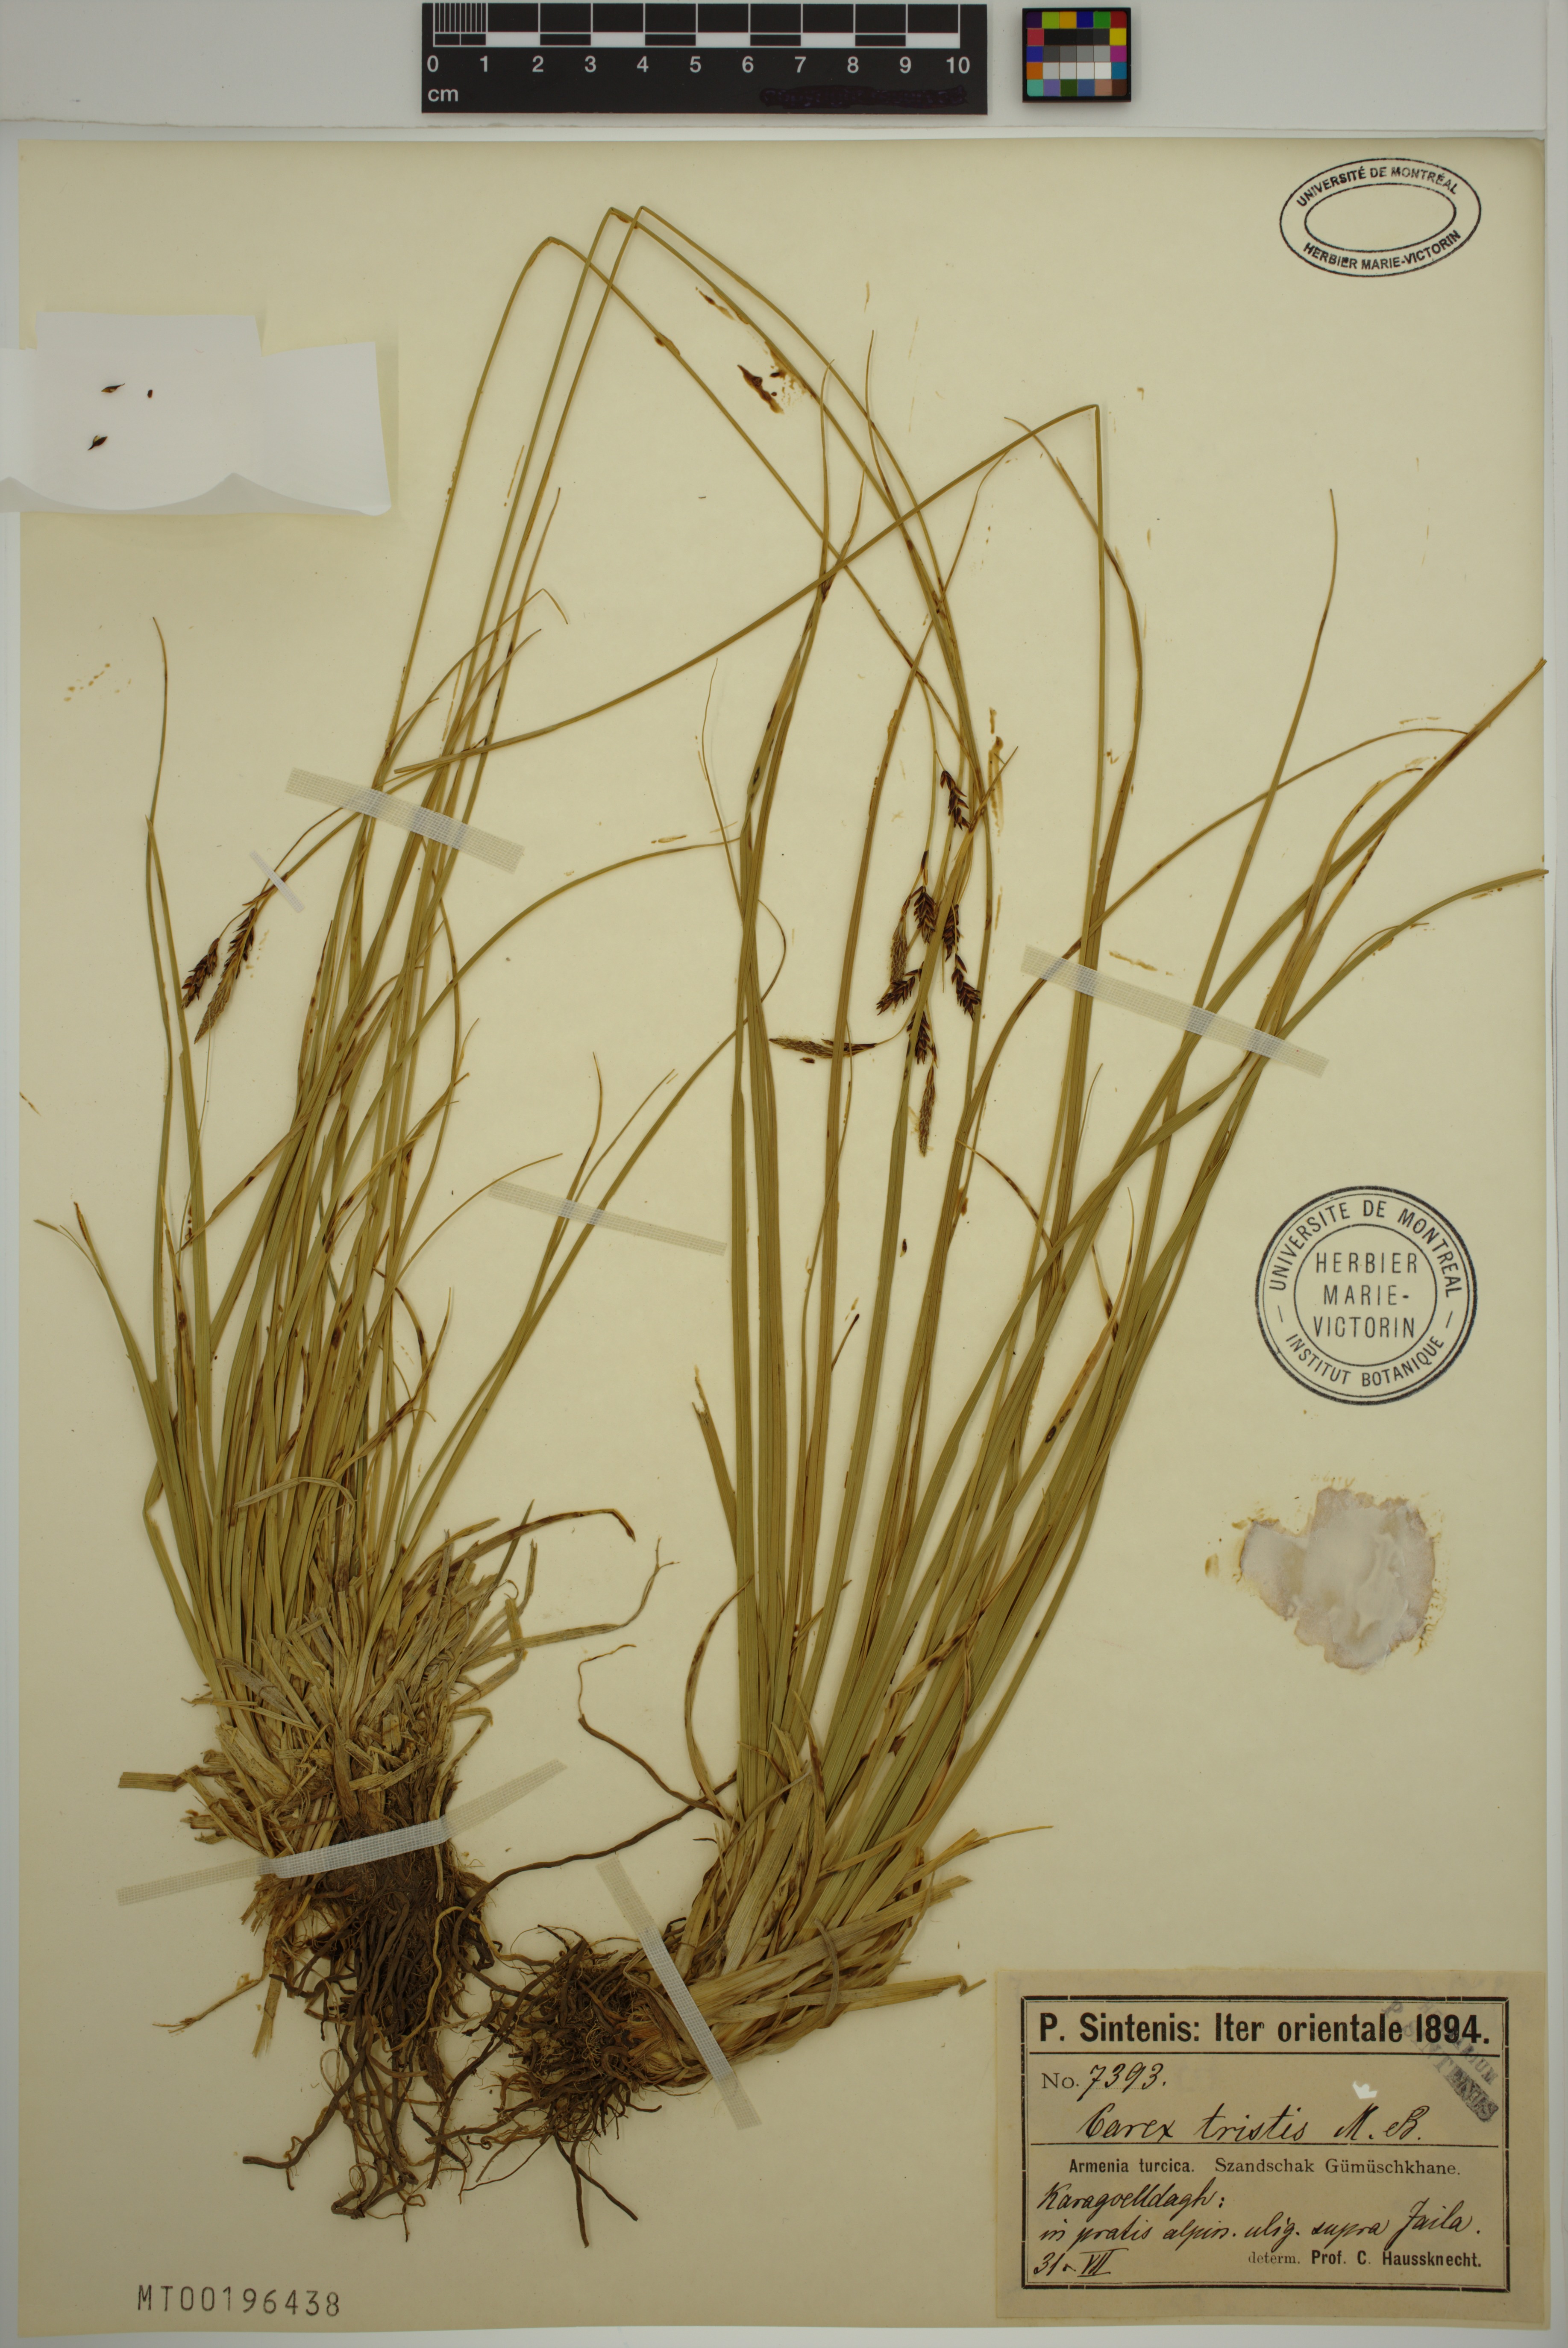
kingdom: Plantae
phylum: Tracheophyta
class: Liliopsida
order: Poales
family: Cyperaceae
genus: Carex
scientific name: Carex tristis
